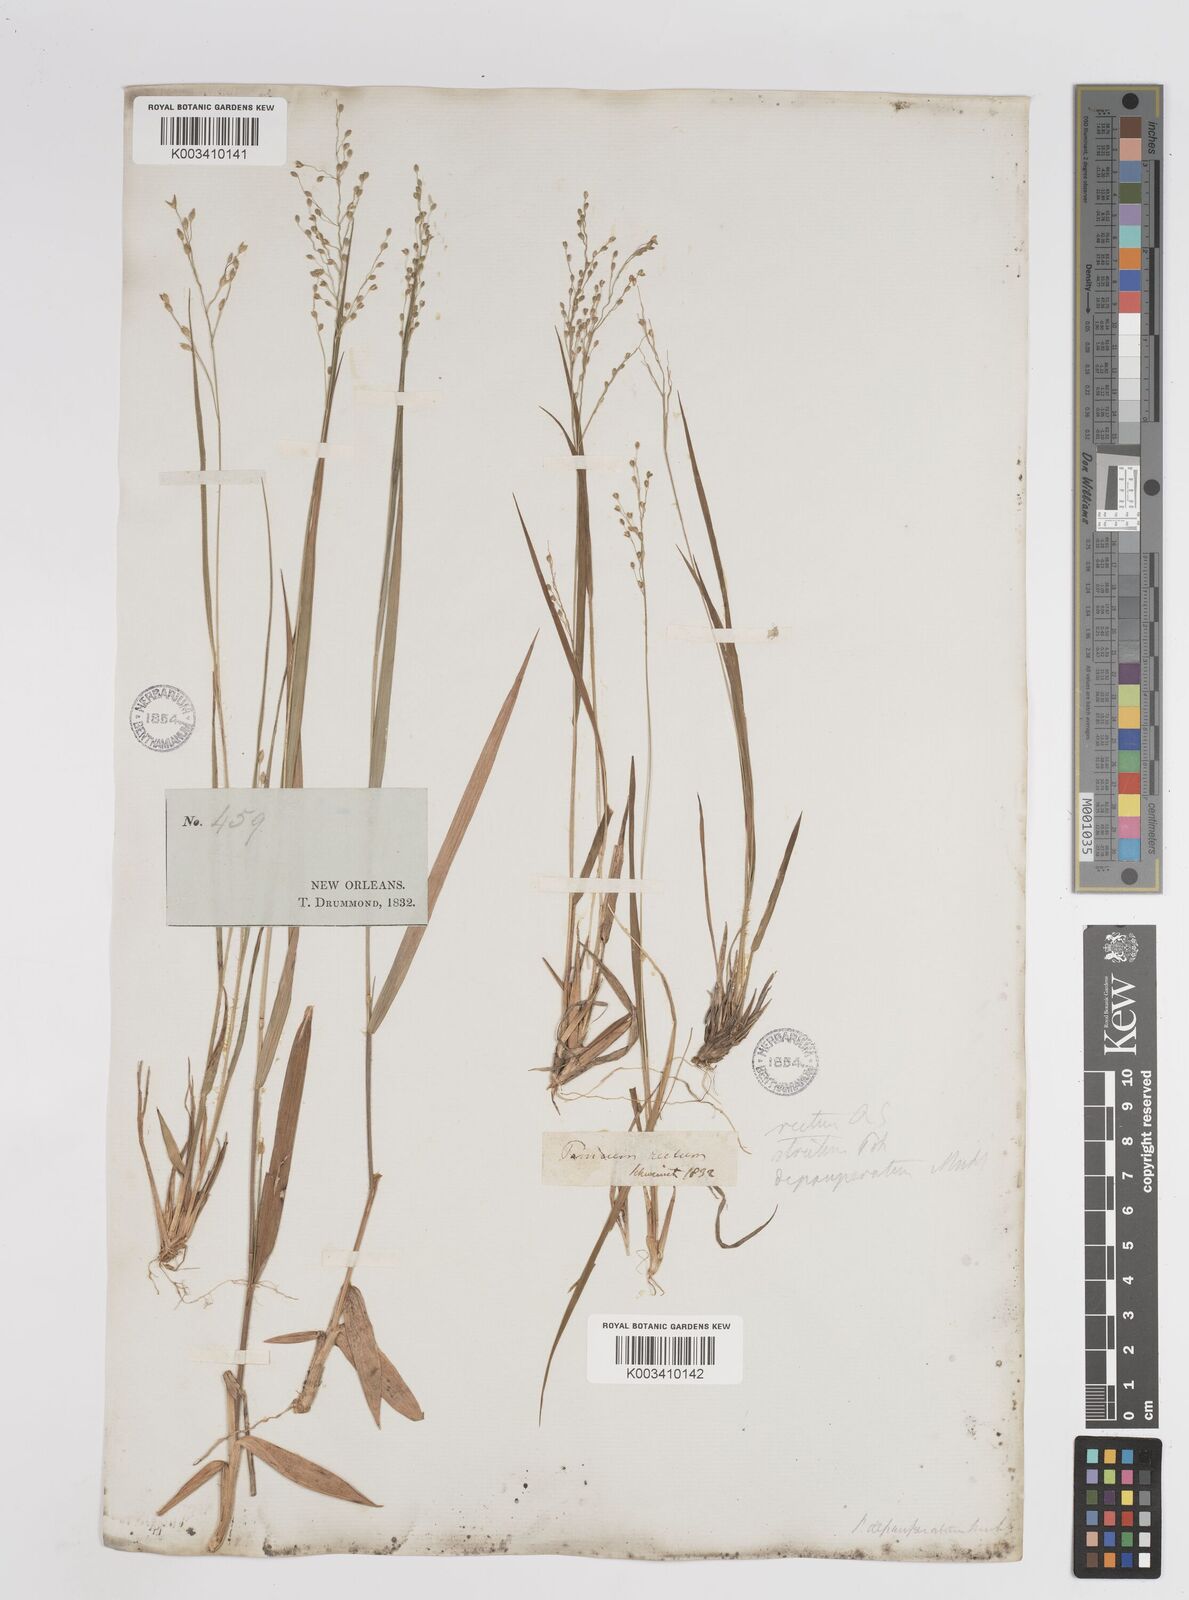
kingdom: Plantae
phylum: Tracheophyta
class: Liliopsida
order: Poales
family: Poaceae
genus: Dichanthelium
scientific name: Dichanthelium depauperatum
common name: Depauperate panicgrass
